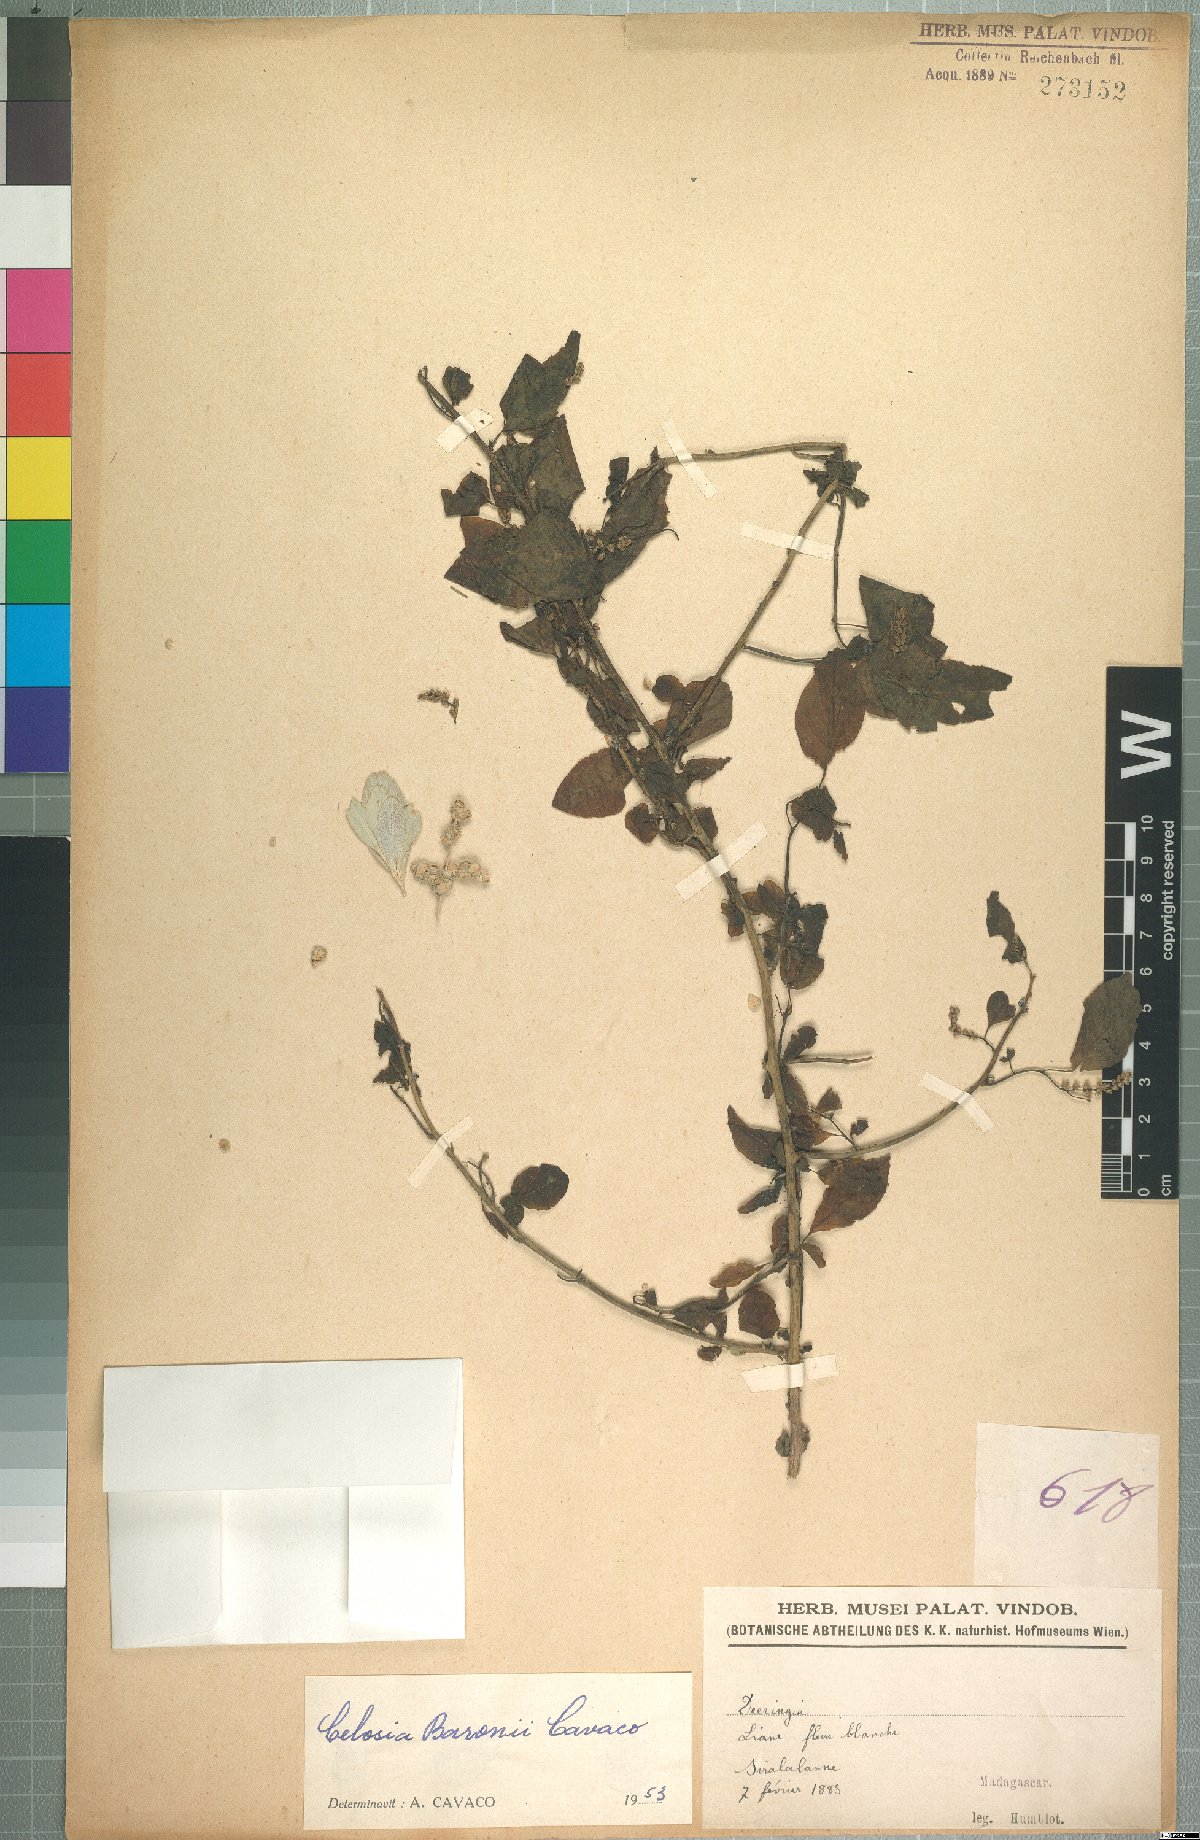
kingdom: Plantae
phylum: Tracheophyta
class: Magnoliopsida
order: Caryophyllales
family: Amaranthaceae
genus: Deeringia
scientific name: Deeringia spicata
